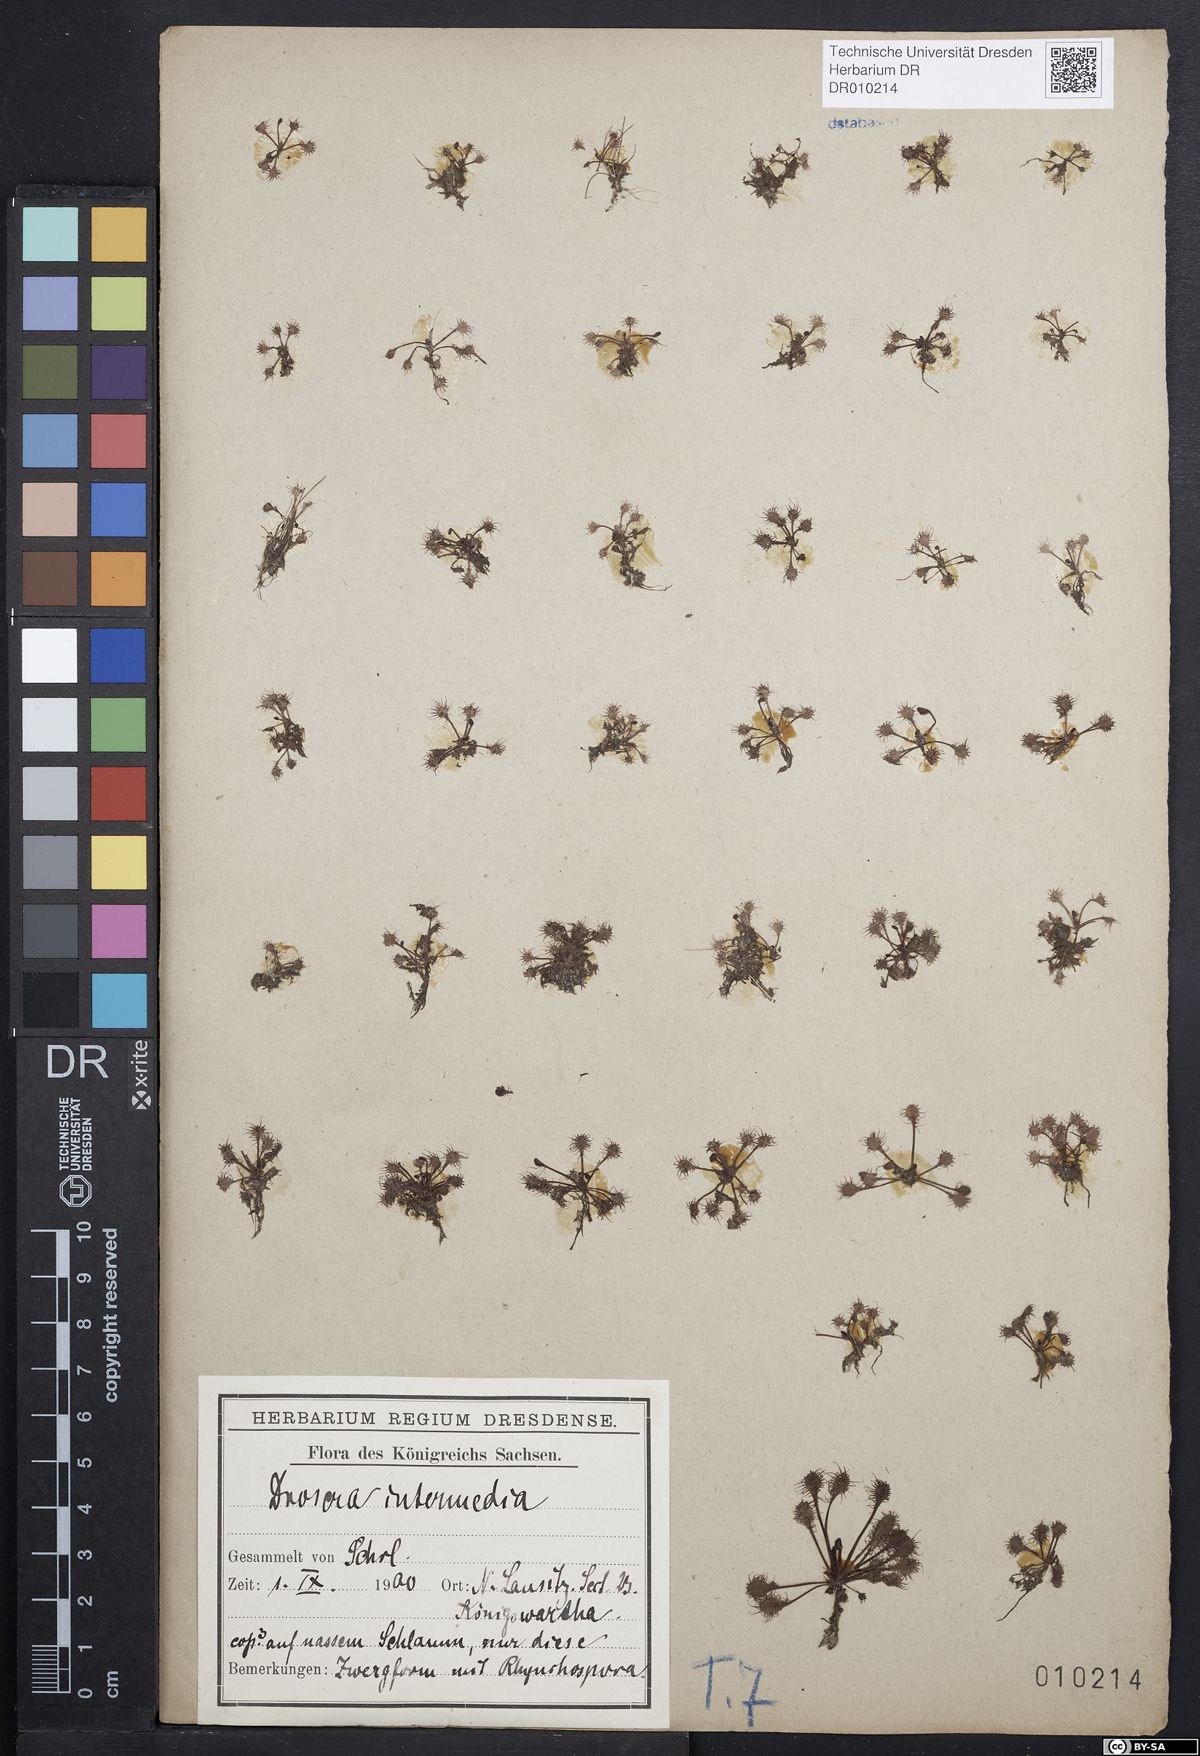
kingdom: Plantae
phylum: Tracheophyta
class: Magnoliopsida
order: Caryophyllales
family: Droseraceae
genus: Drosera
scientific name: Drosera intermedia
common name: Oblong-leaved sundew
